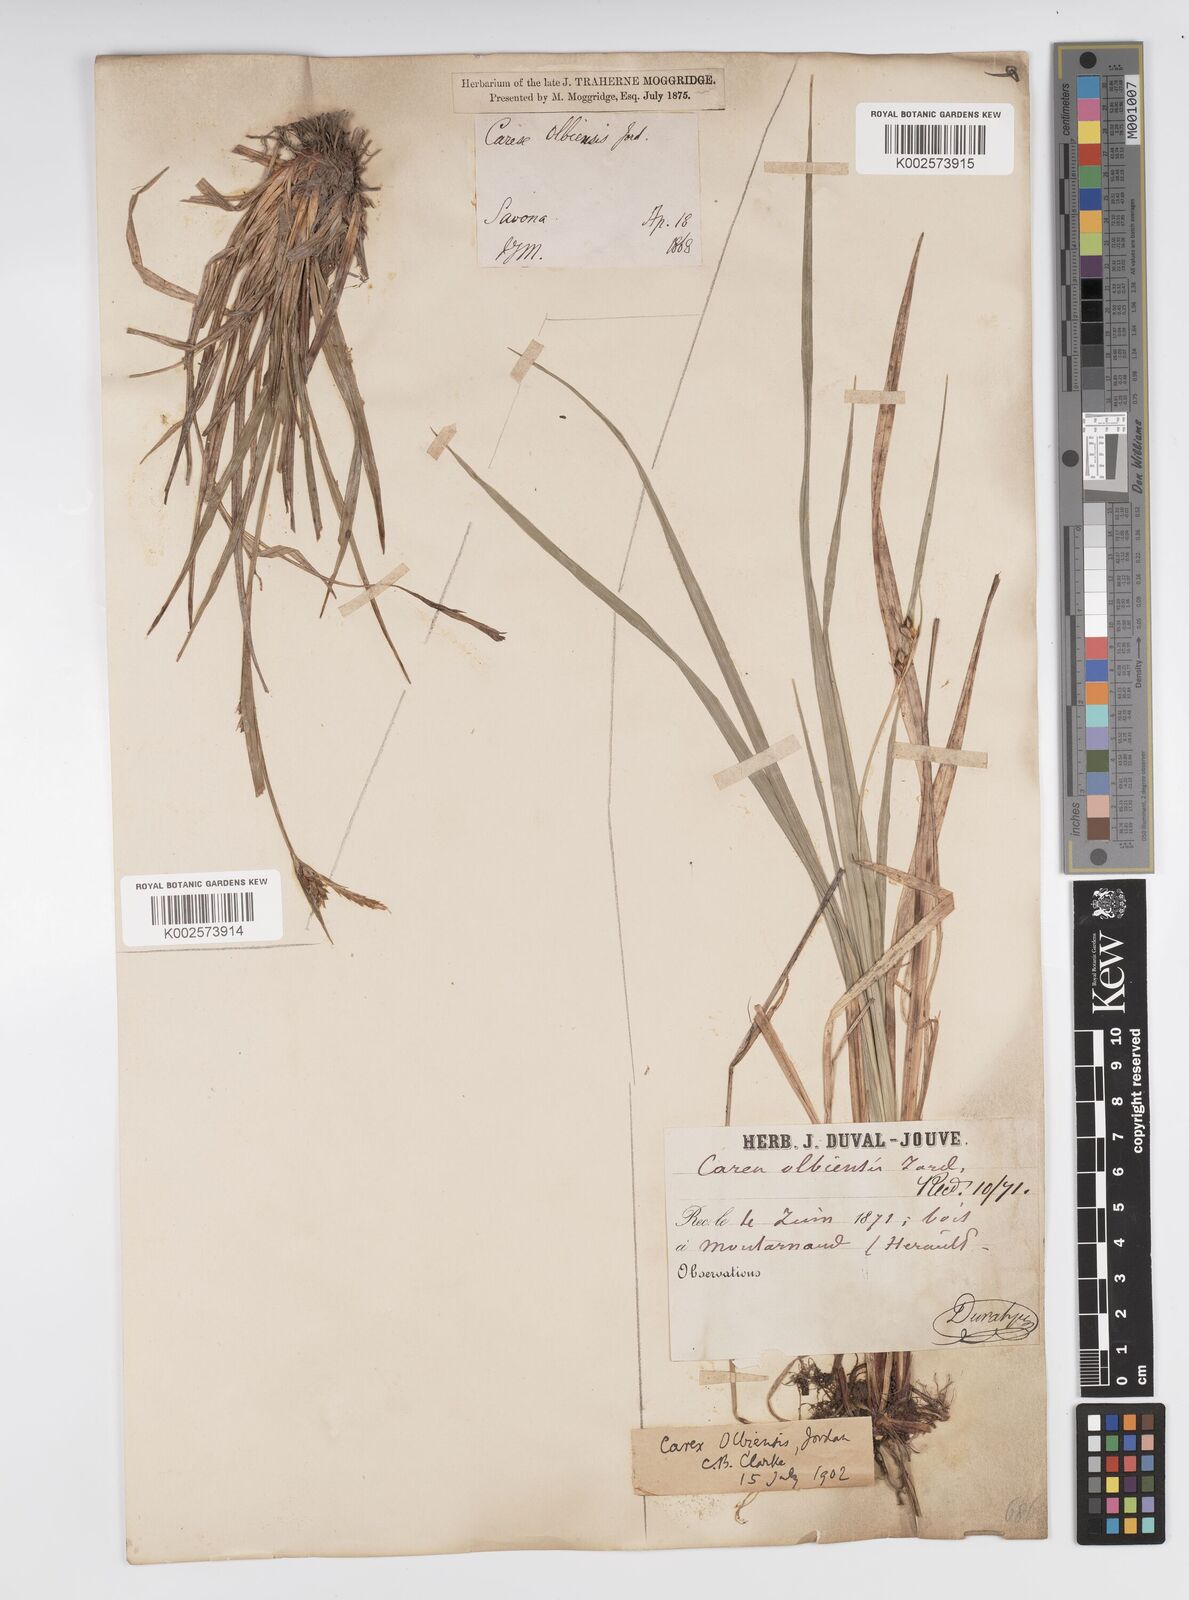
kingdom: Plantae
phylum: Tracheophyta
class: Liliopsida
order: Poales
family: Cyperaceae
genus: Carex
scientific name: Carex olbiensis
